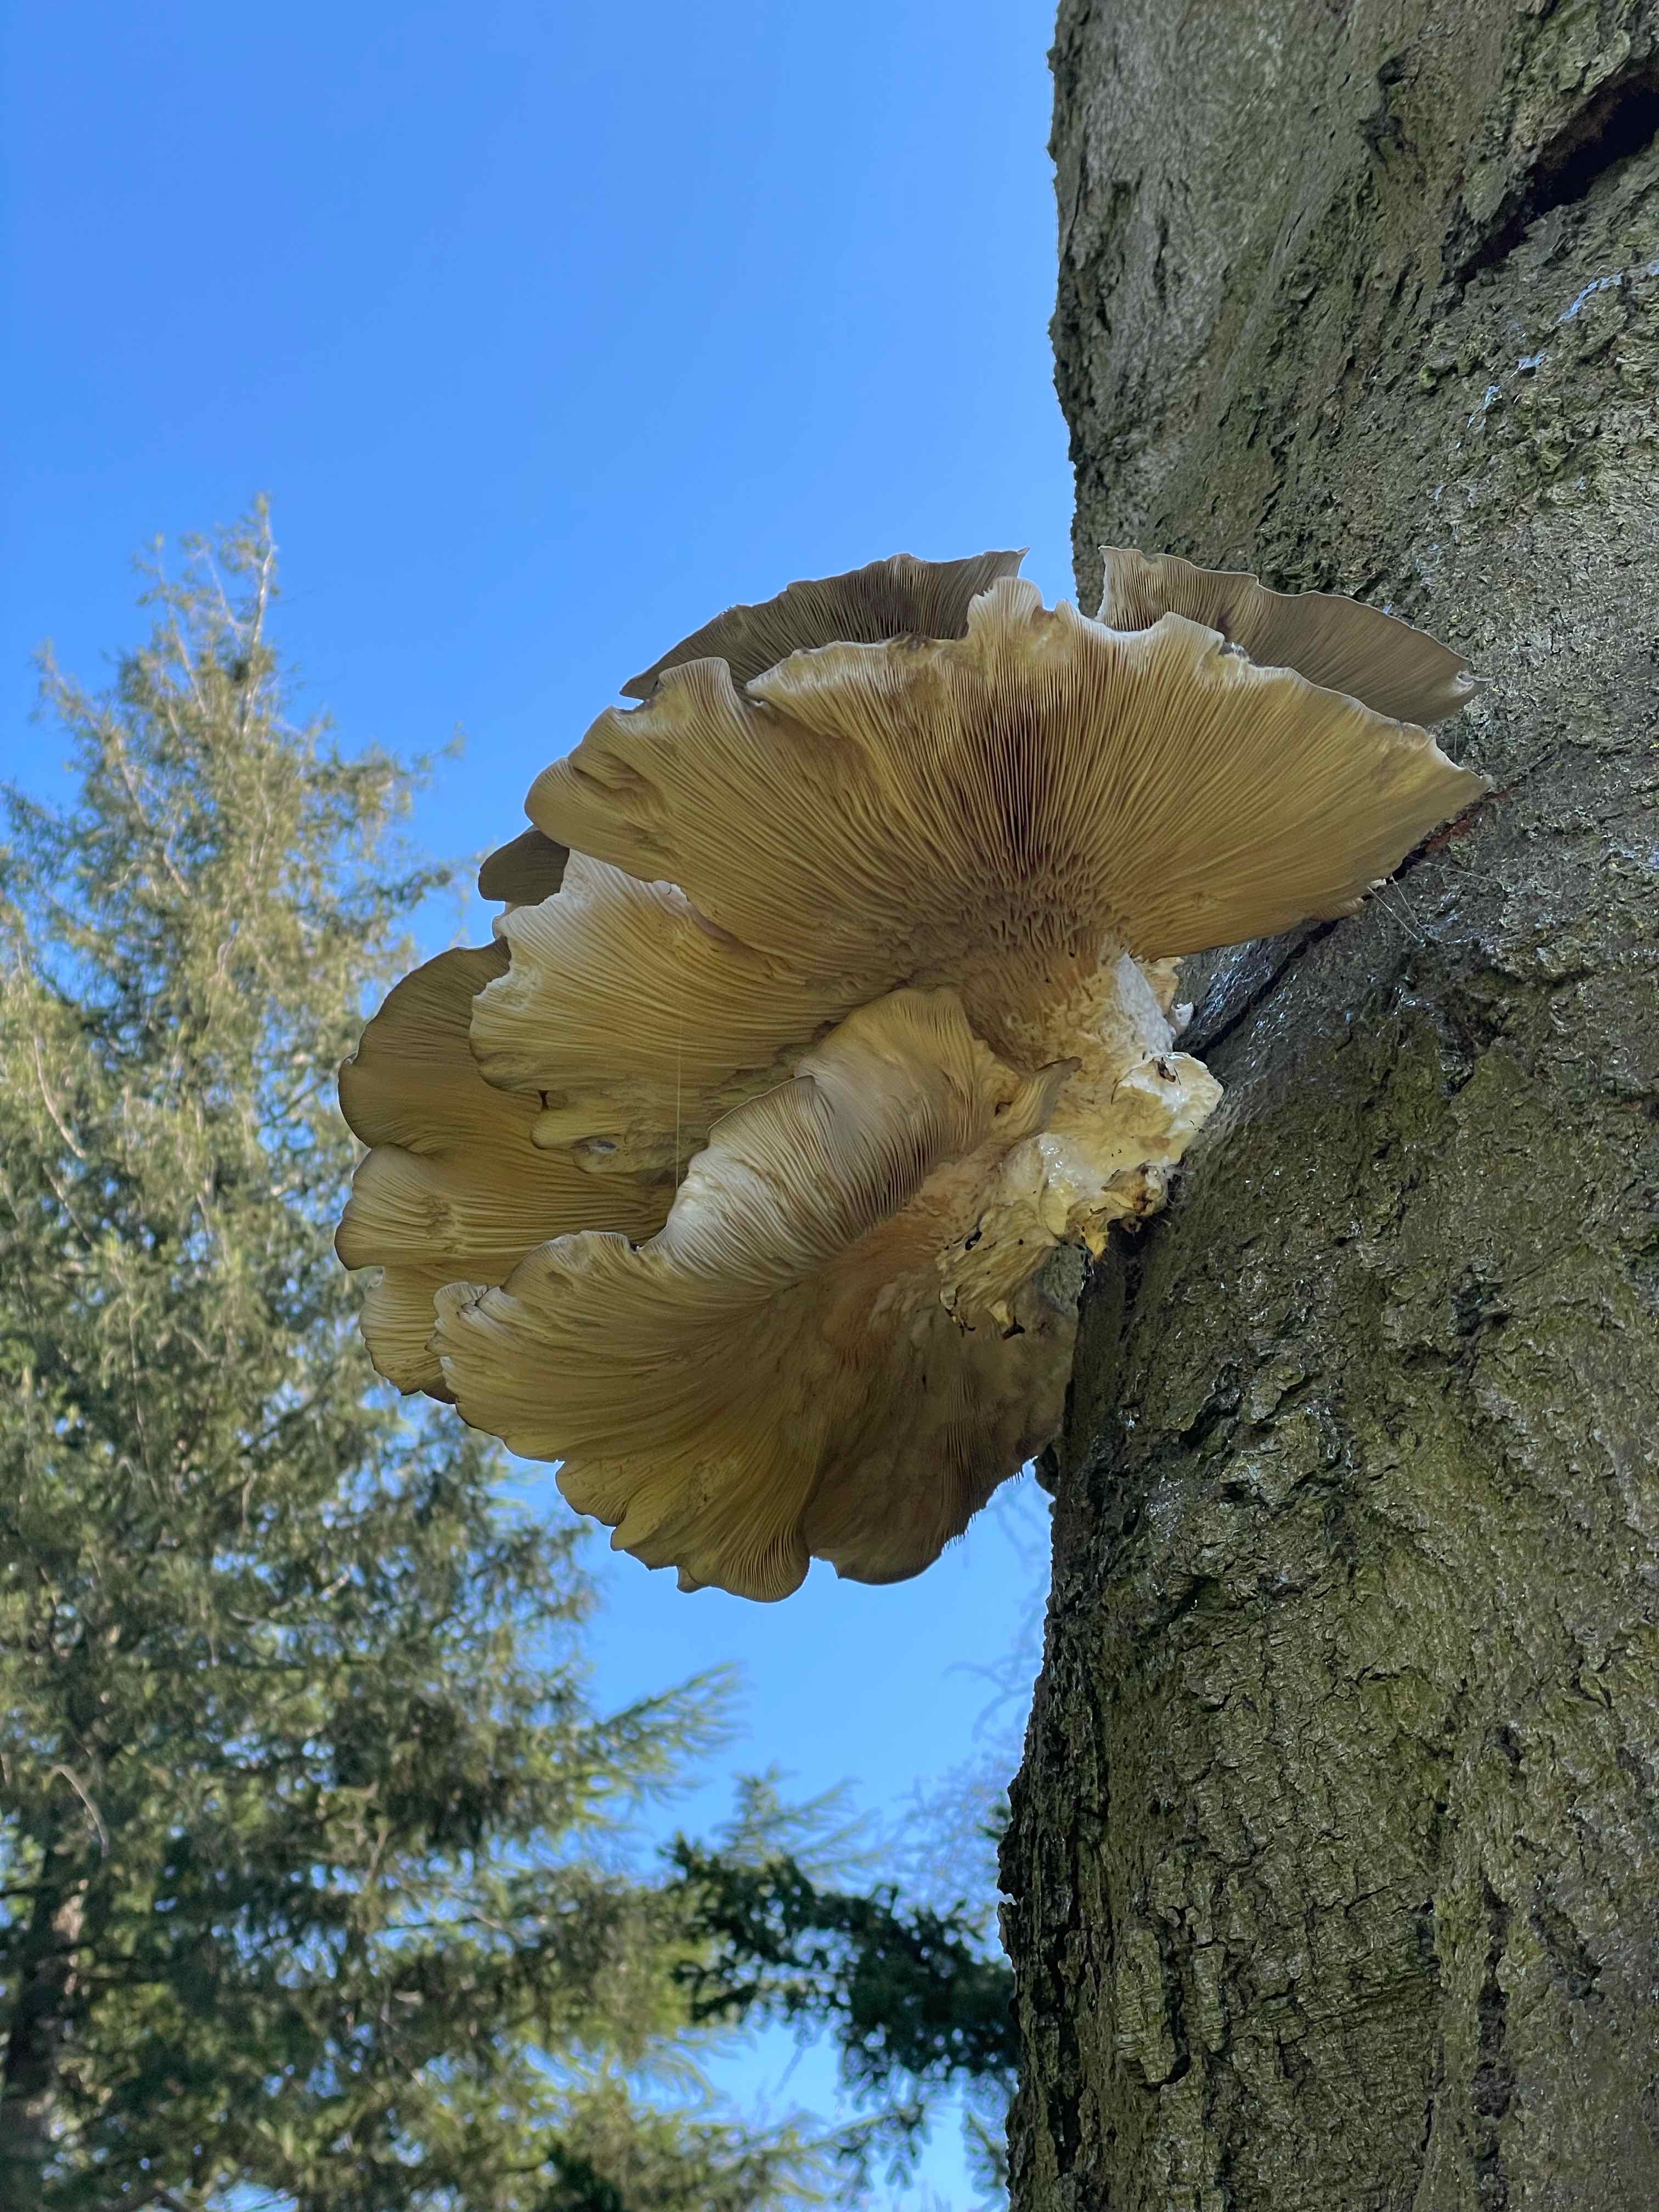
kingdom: Fungi
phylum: Basidiomycota
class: Agaricomycetes
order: Agaricales
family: Pleurotaceae
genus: Pleurotus
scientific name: Pleurotus ostreatus
